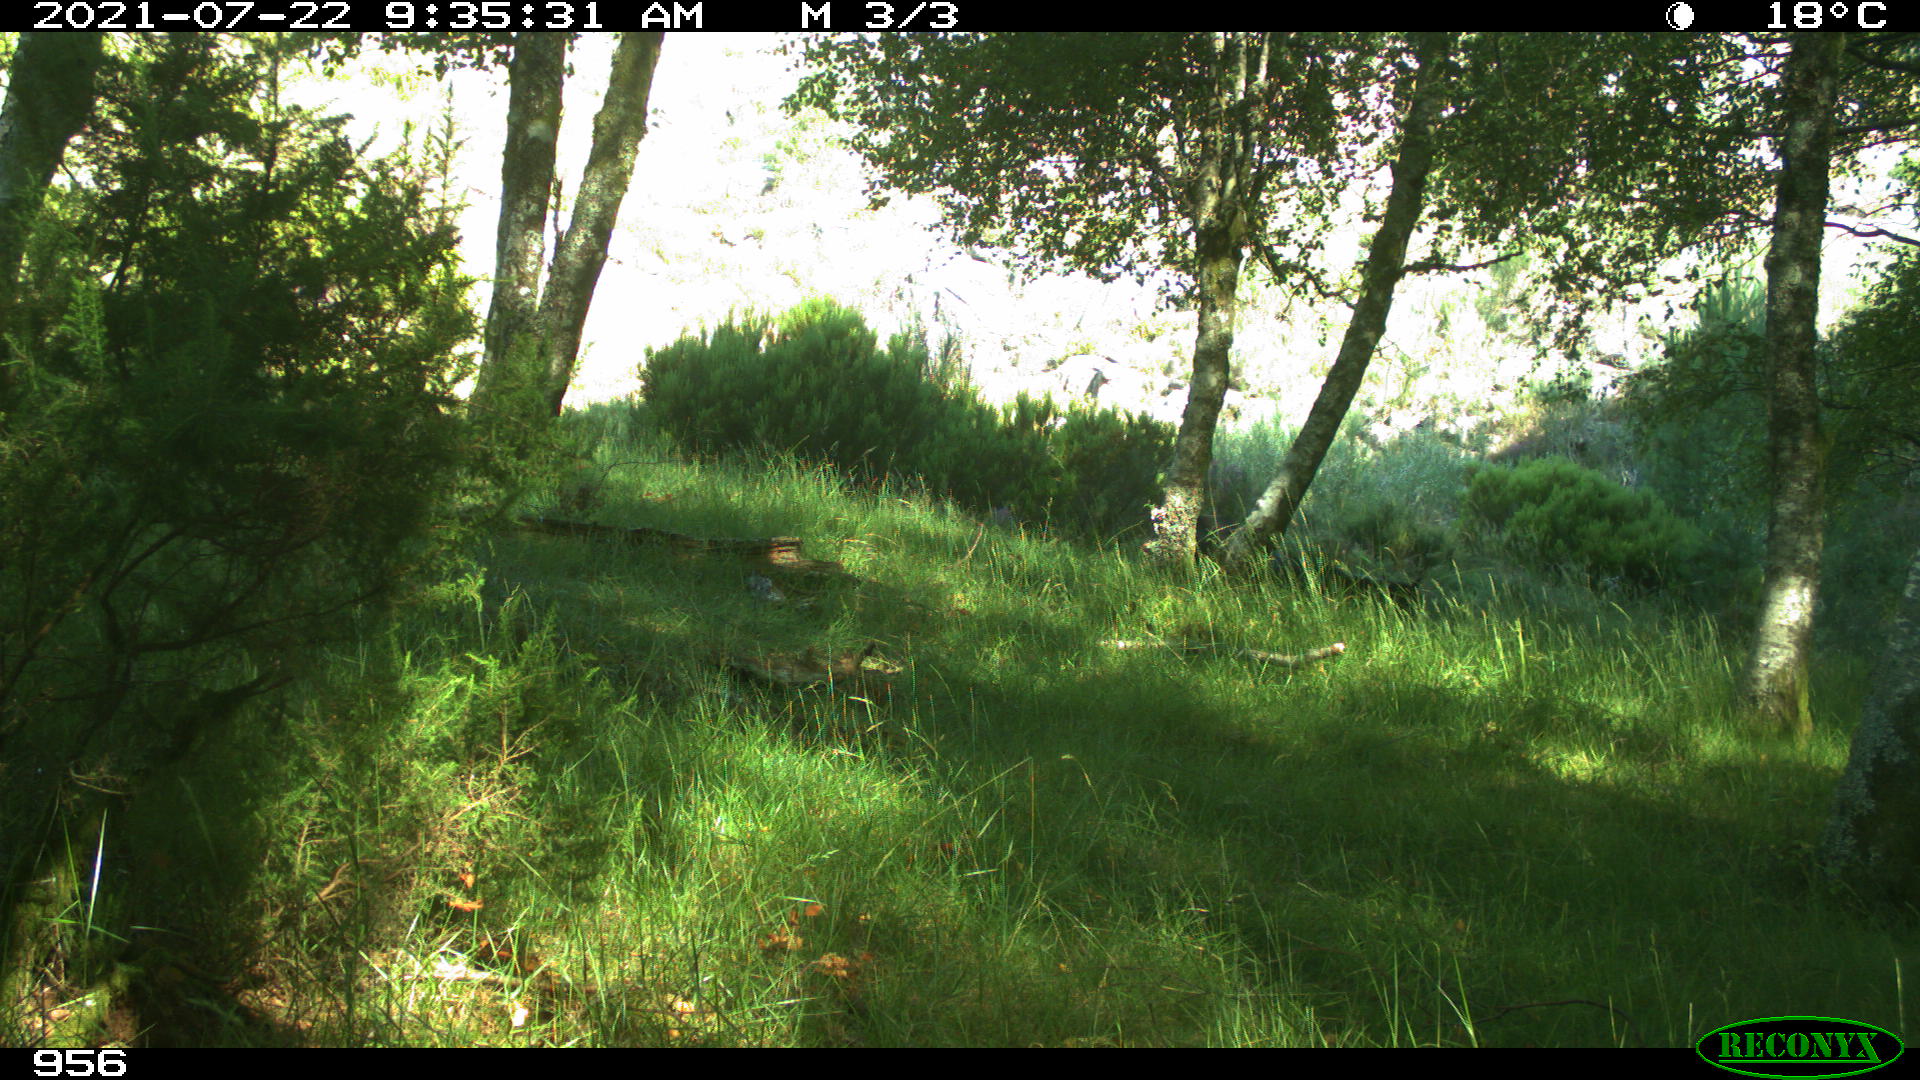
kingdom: Animalia
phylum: Chordata
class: Mammalia
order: Perissodactyla
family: Equidae
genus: Equus
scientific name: Equus caballus
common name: Horse
